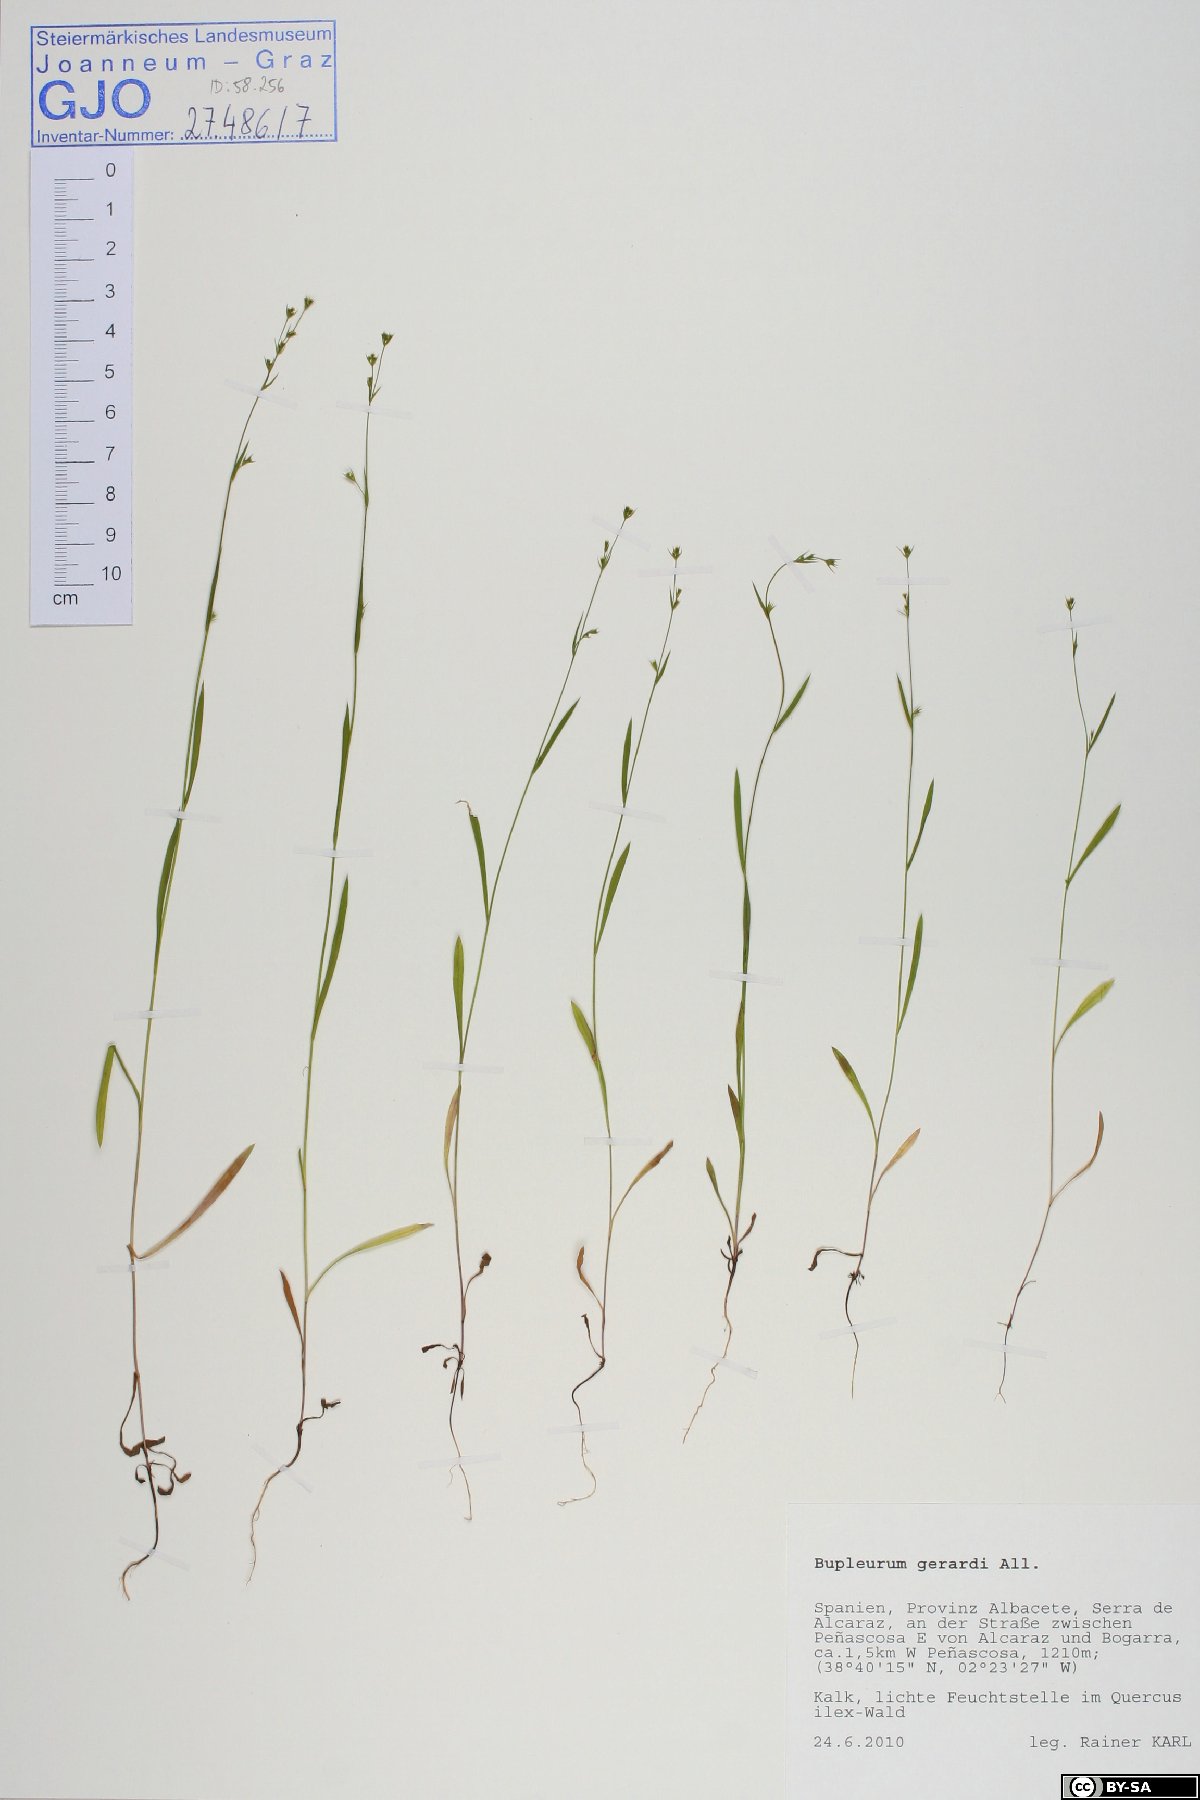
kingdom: Plantae
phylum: Tracheophyta
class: Magnoliopsida
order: Apiales
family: Apiaceae
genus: Bupleurum
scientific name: Bupleurum gerardi
